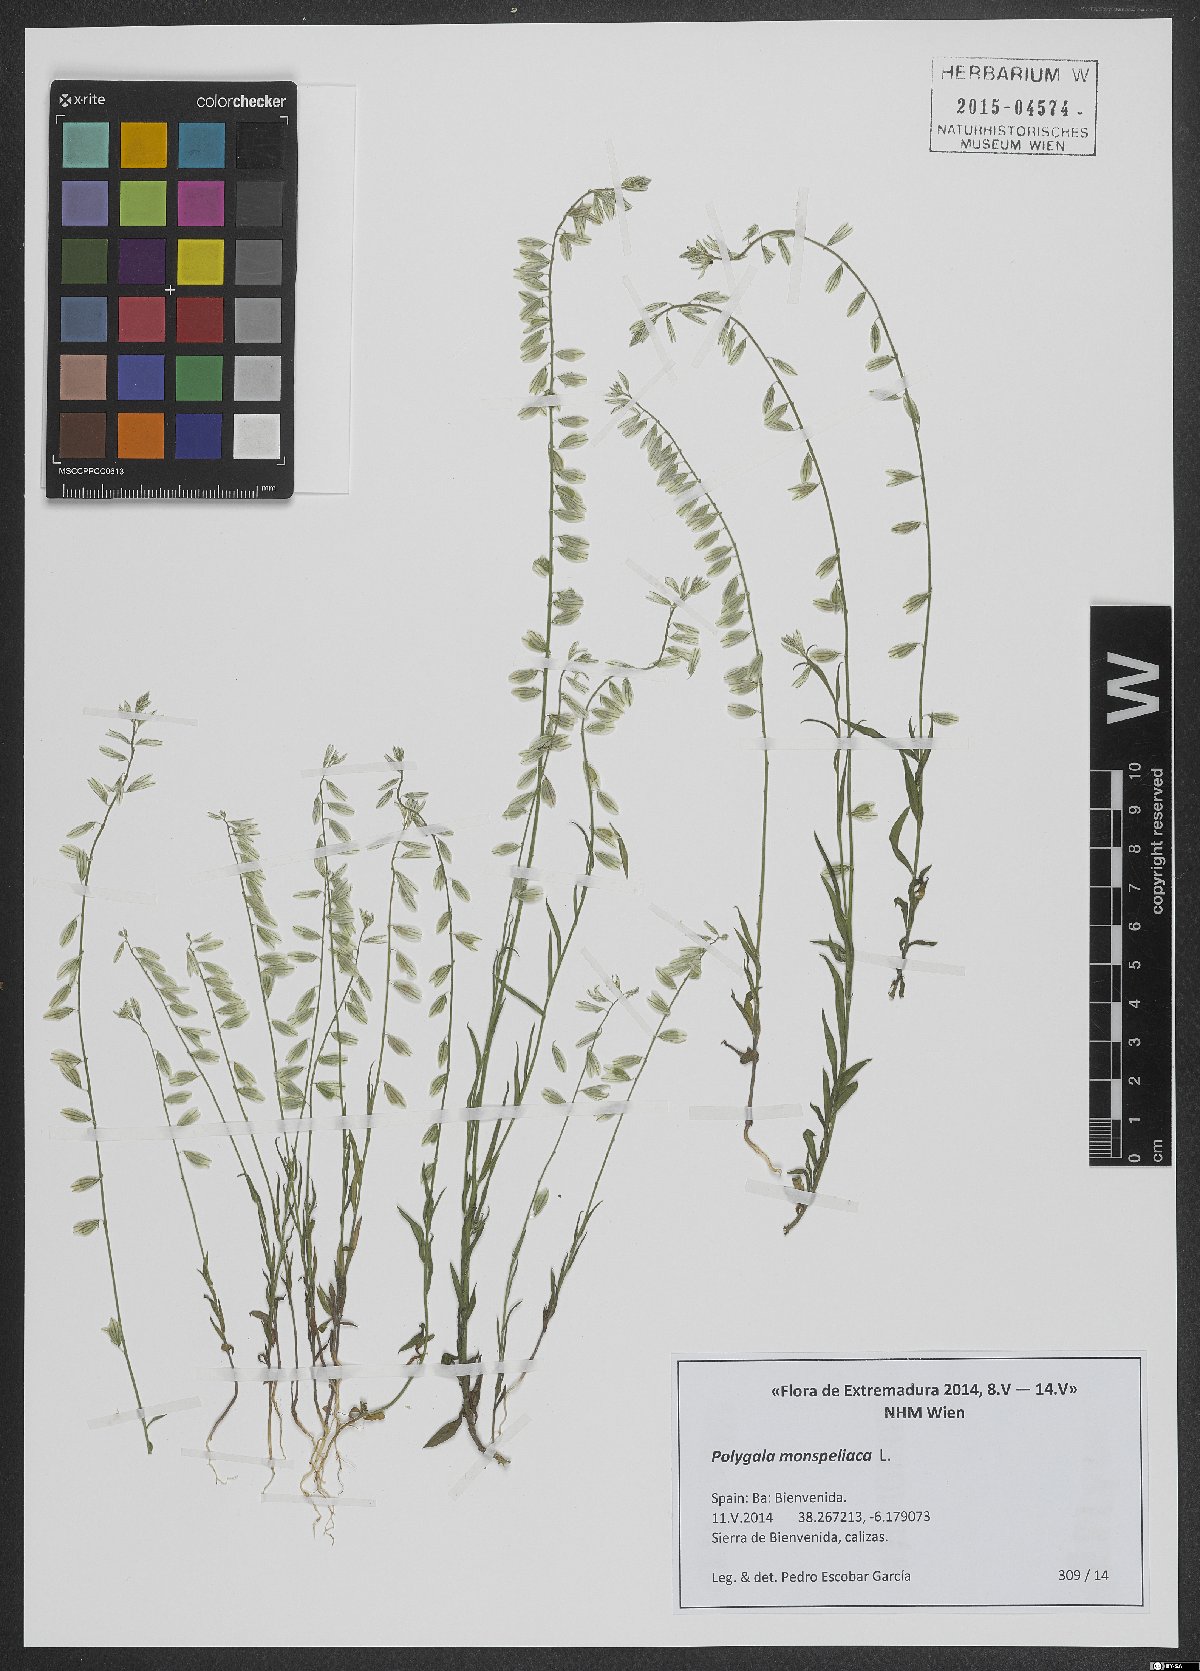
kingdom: Plantae
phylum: Tracheophyta
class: Magnoliopsida
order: Fabales
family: Polygalaceae
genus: Polygala
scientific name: Polygala monspeliaca
